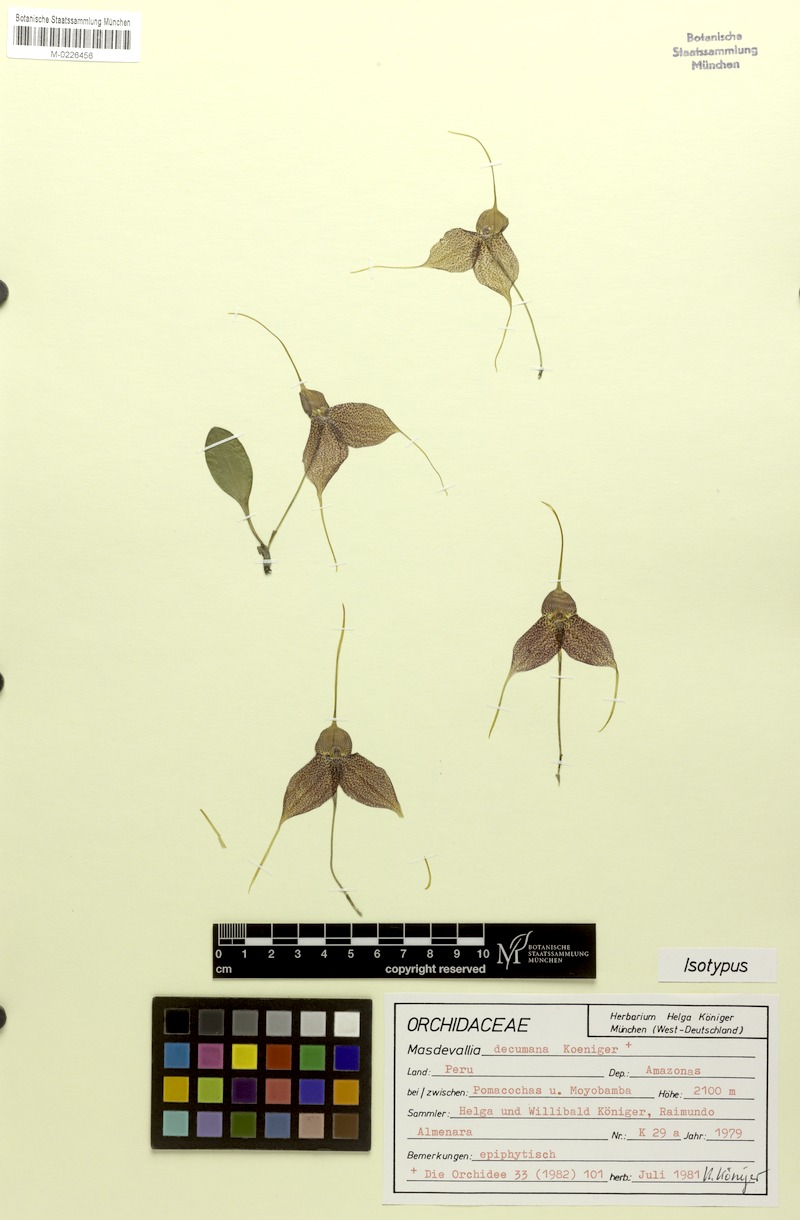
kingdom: Plantae
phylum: Tracheophyta
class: Liliopsida
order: Asparagales
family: Orchidaceae
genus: Masdevallia
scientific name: Masdevallia decumana
